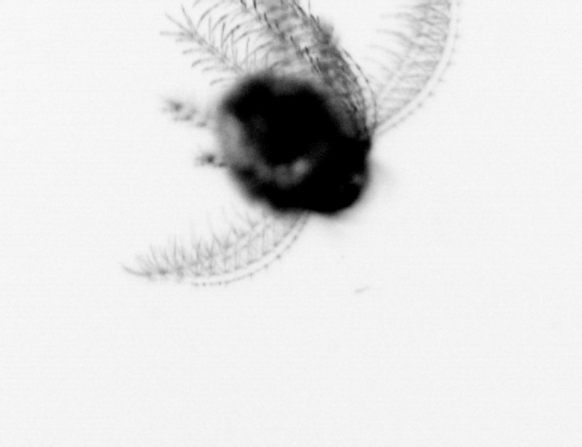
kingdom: Animalia
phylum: Arthropoda
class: Maxillopoda
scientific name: Maxillopoda
